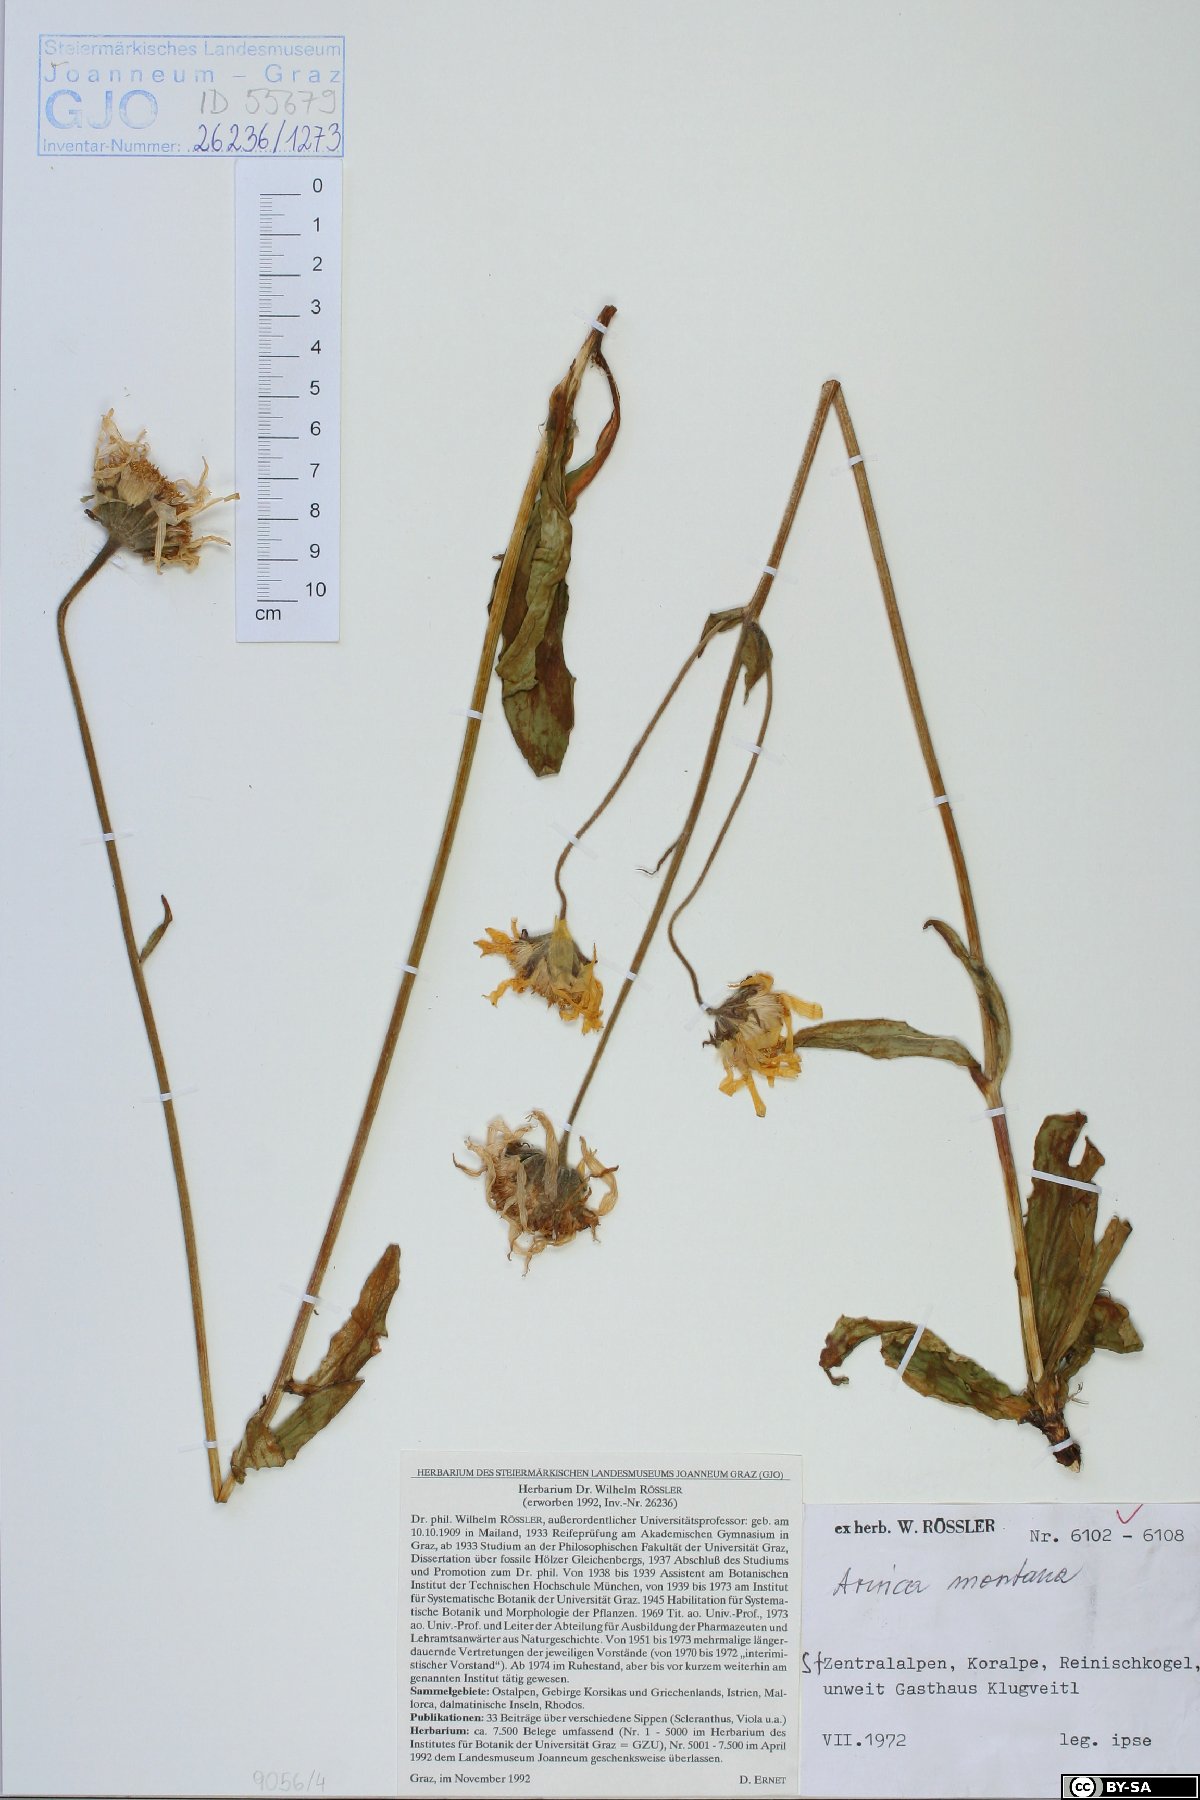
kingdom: Plantae
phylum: Tracheophyta
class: Magnoliopsida
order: Asterales
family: Asteraceae
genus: Arnica
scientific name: Arnica montana
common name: Leopard's bane
